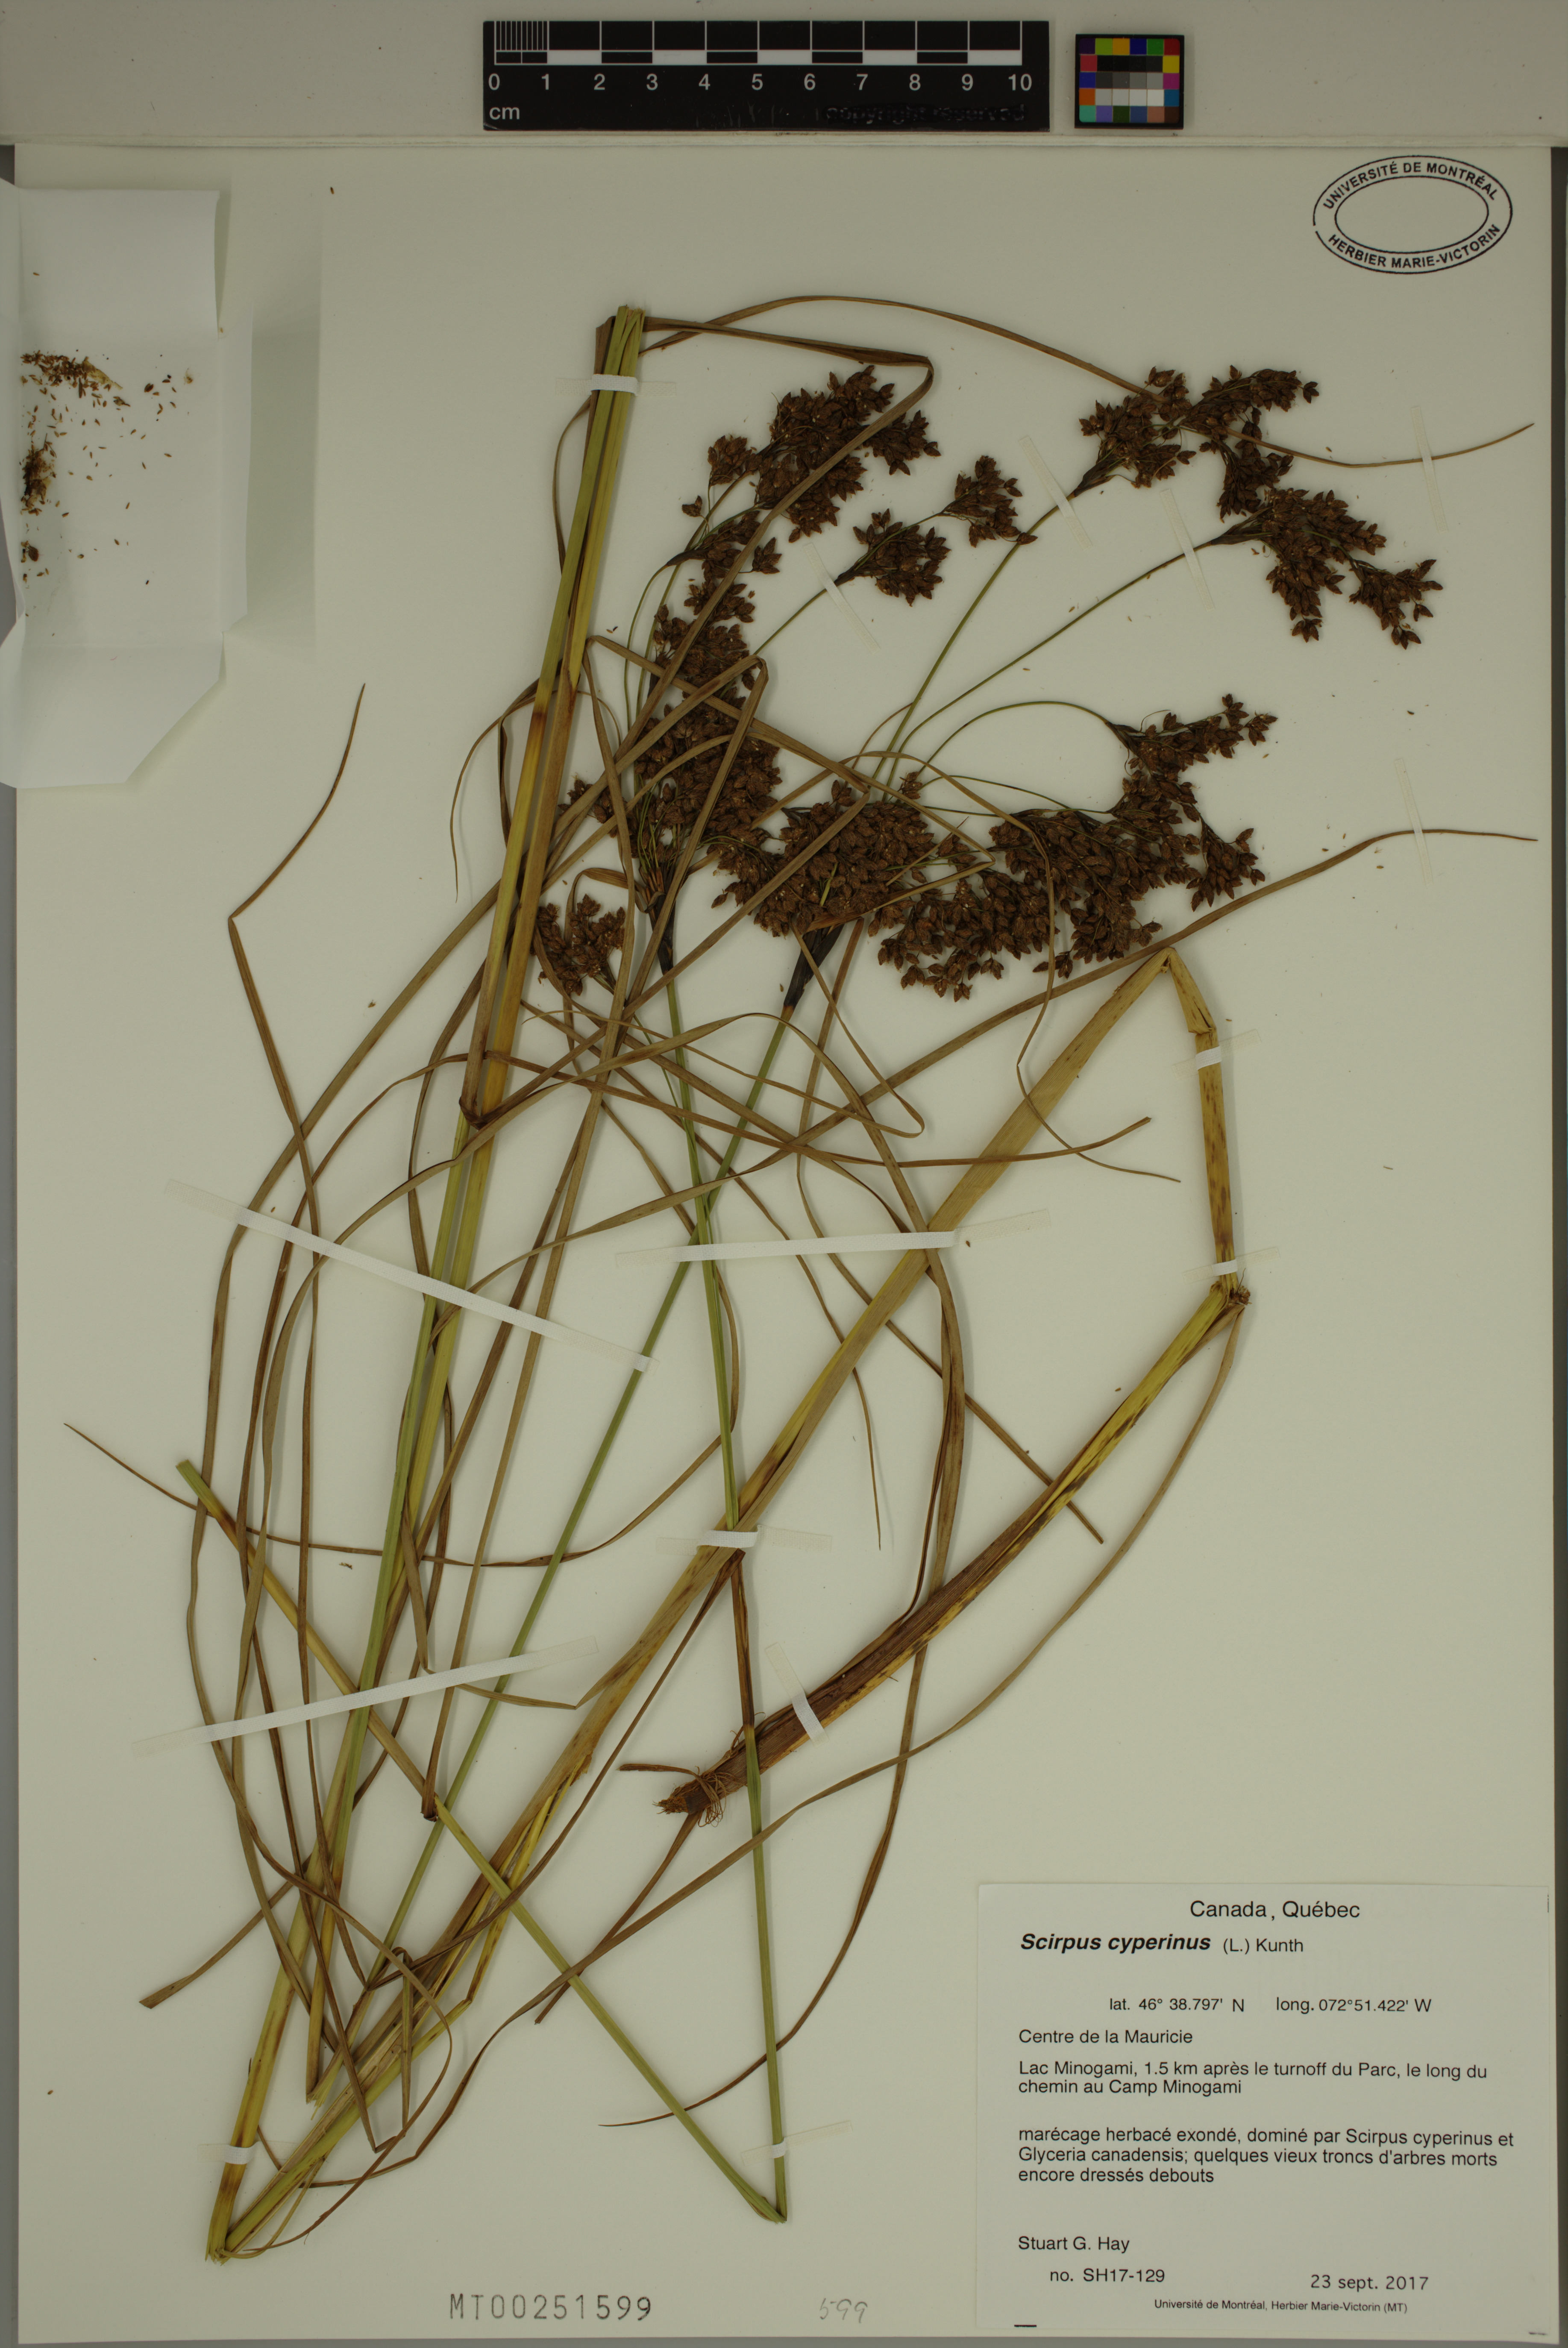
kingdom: Plantae
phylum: Tracheophyta
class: Liliopsida
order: Poales
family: Cyperaceae
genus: Scirpus
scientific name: Scirpus cyperinus
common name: Black-sheathed bulrush
